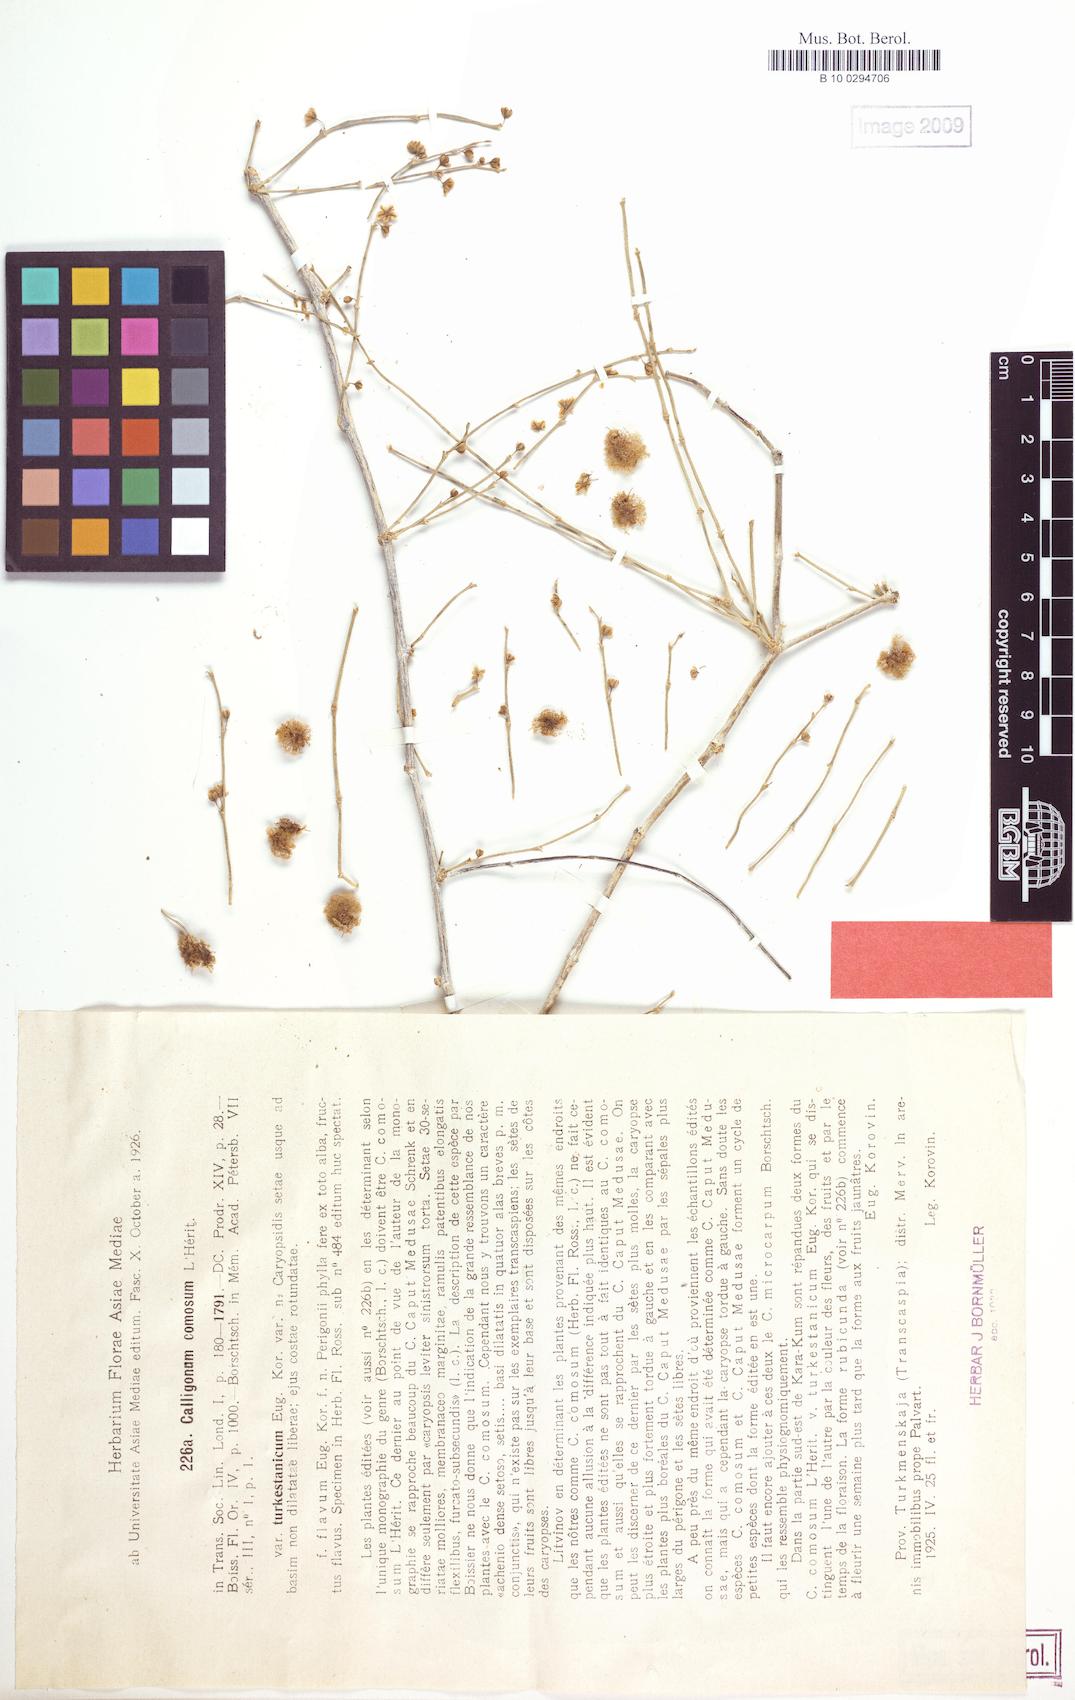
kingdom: Plantae
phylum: Tracheophyta
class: Magnoliopsida
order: Caryophyllales
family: Polygonaceae
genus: Calligonum
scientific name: Calligonum mongolicum
